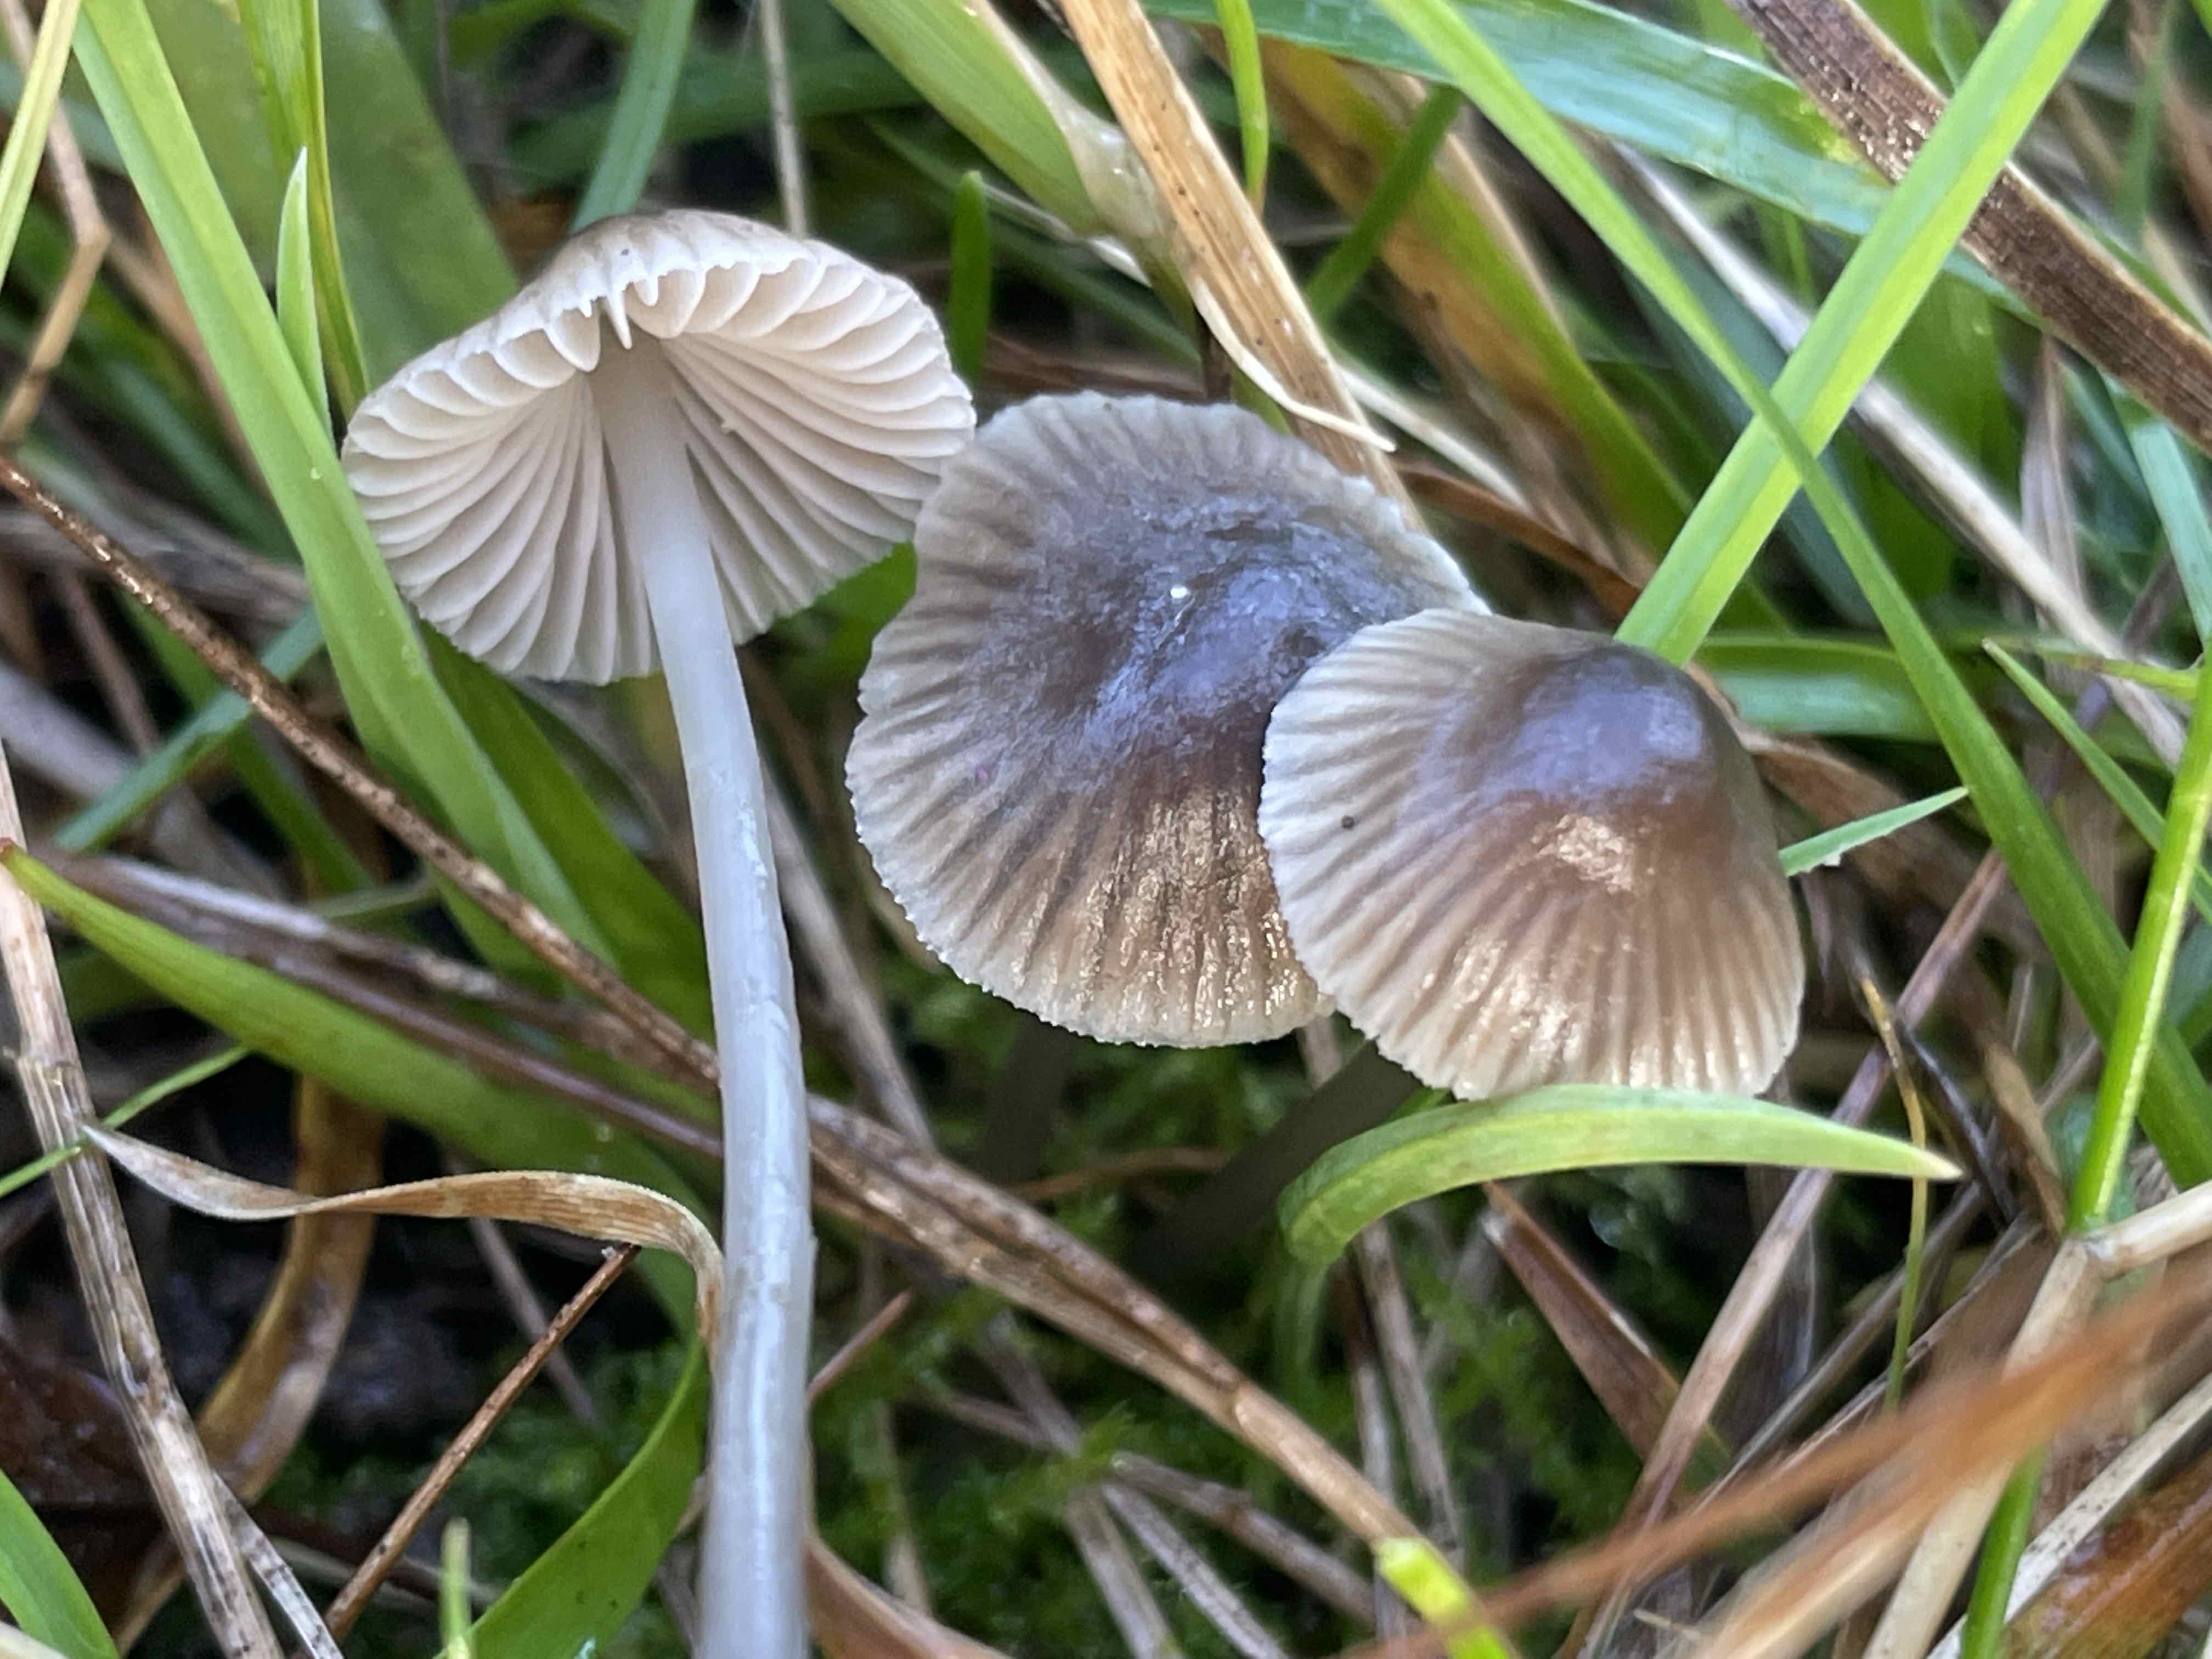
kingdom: Fungi
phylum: Basidiomycota
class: Agaricomycetes
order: Agaricales
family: Mycenaceae
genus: Mycena
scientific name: Mycena leptocephala
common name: klor-huesvamp
